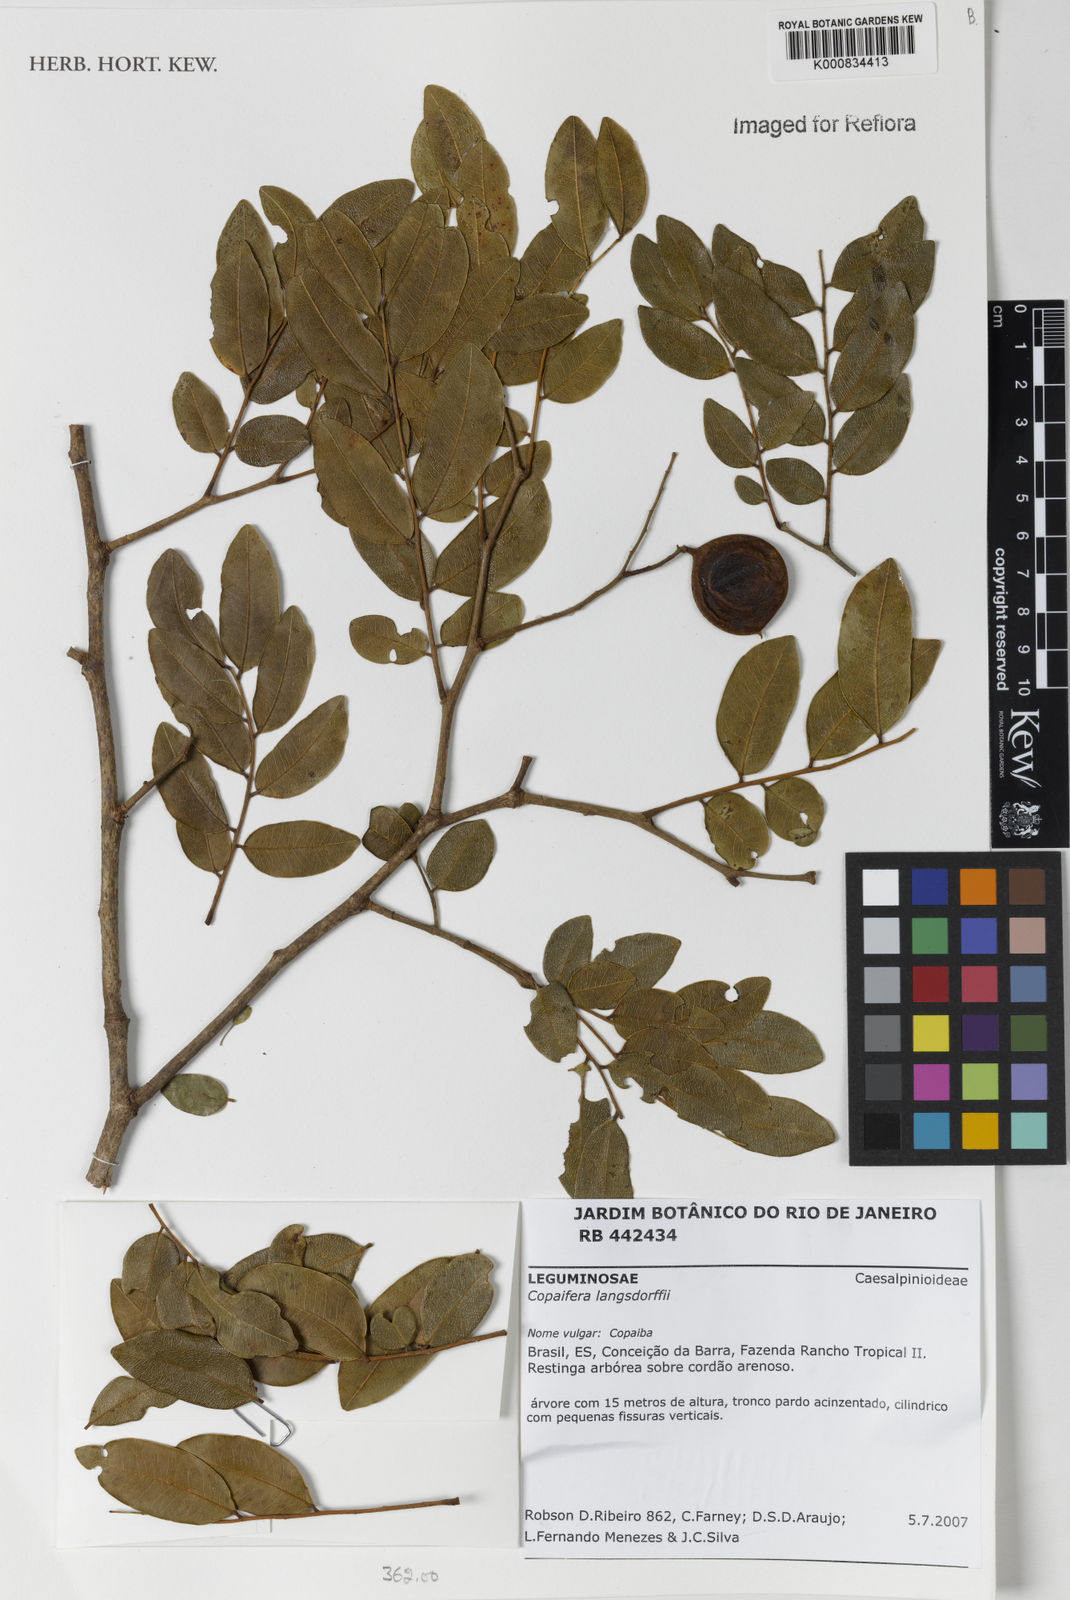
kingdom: Plantae
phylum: Tracheophyta
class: Magnoliopsida
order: Fabales
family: Fabaceae
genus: Copaifera
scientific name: Copaifera langsdorffii
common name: Brazilian diesel tree
